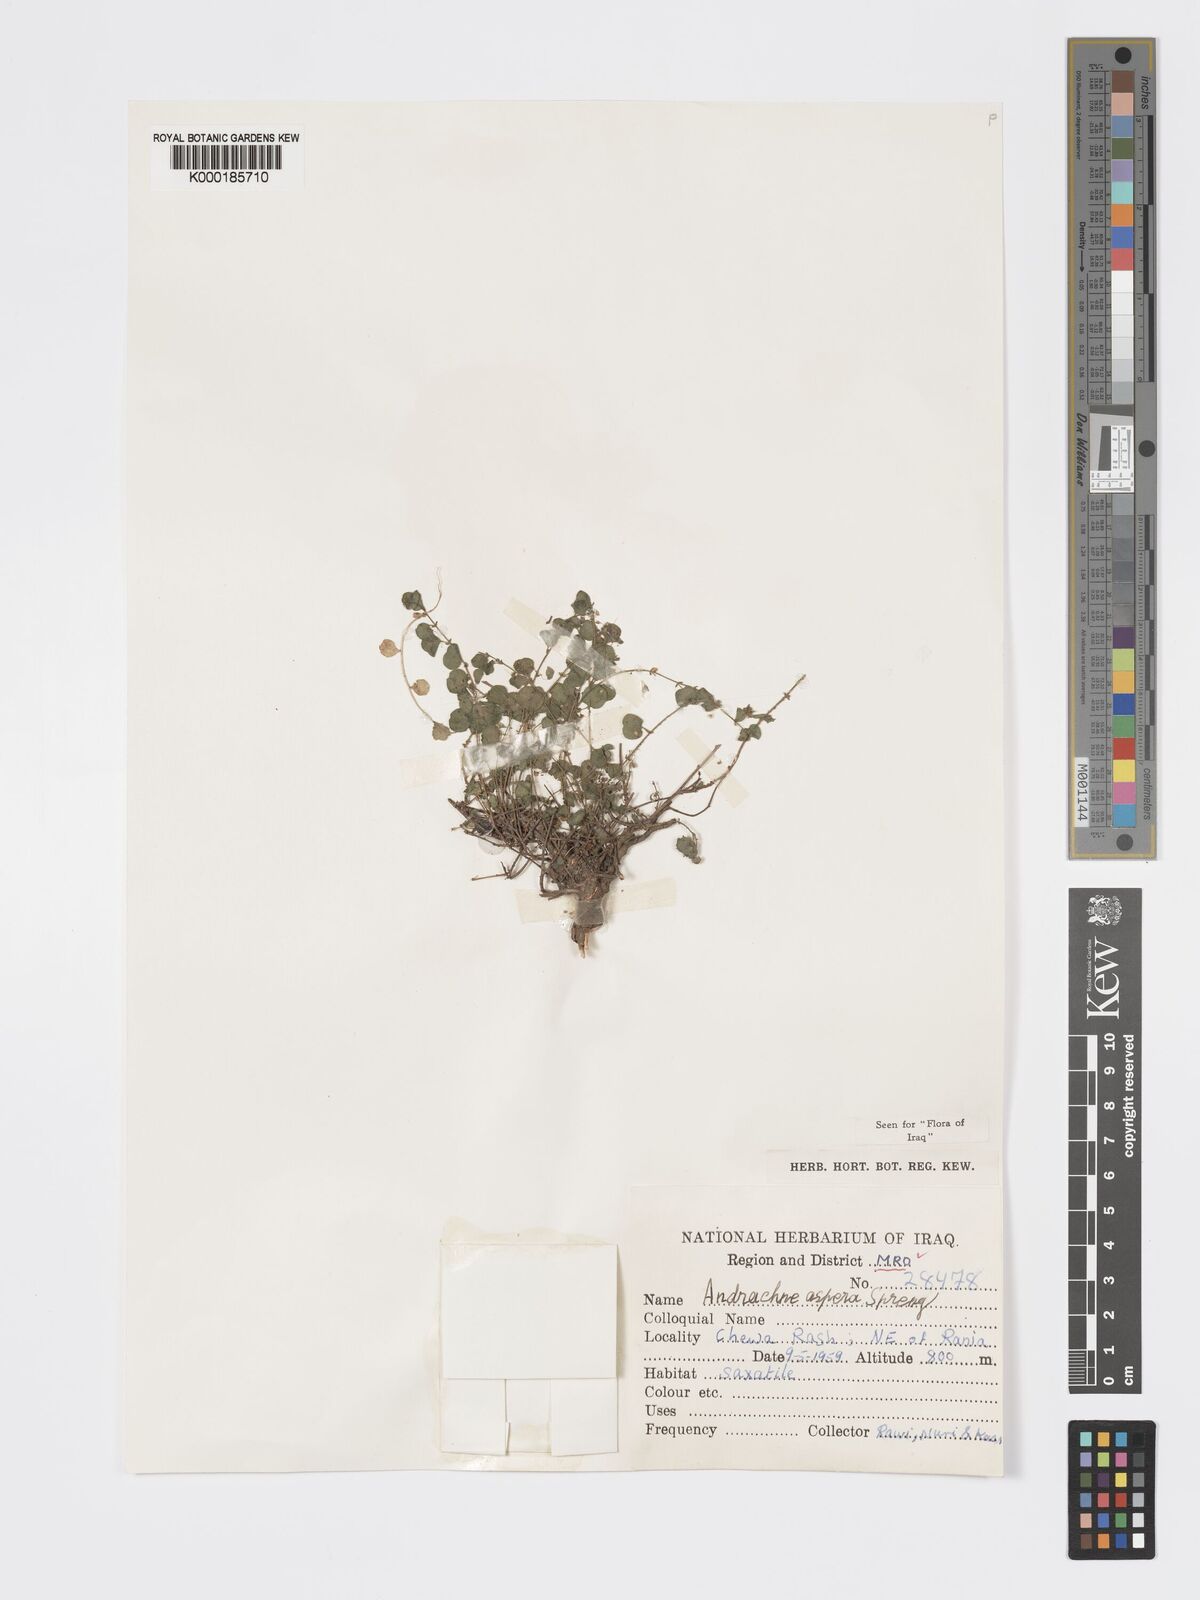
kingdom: Plantae
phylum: Tracheophyta
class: Magnoliopsida
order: Malpighiales
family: Phyllanthaceae
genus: Andrachne
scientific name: Andrachne aspera
